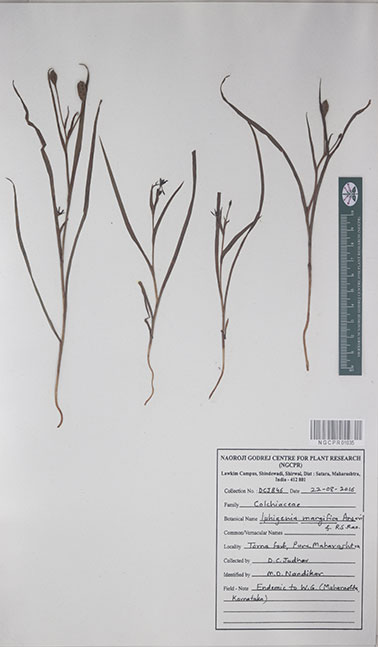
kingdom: Plantae
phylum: Tracheophyta
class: Liliopsida
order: Liliales
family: Colchicaceae
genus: Iphigenia
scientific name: Iphigenia magnifica
